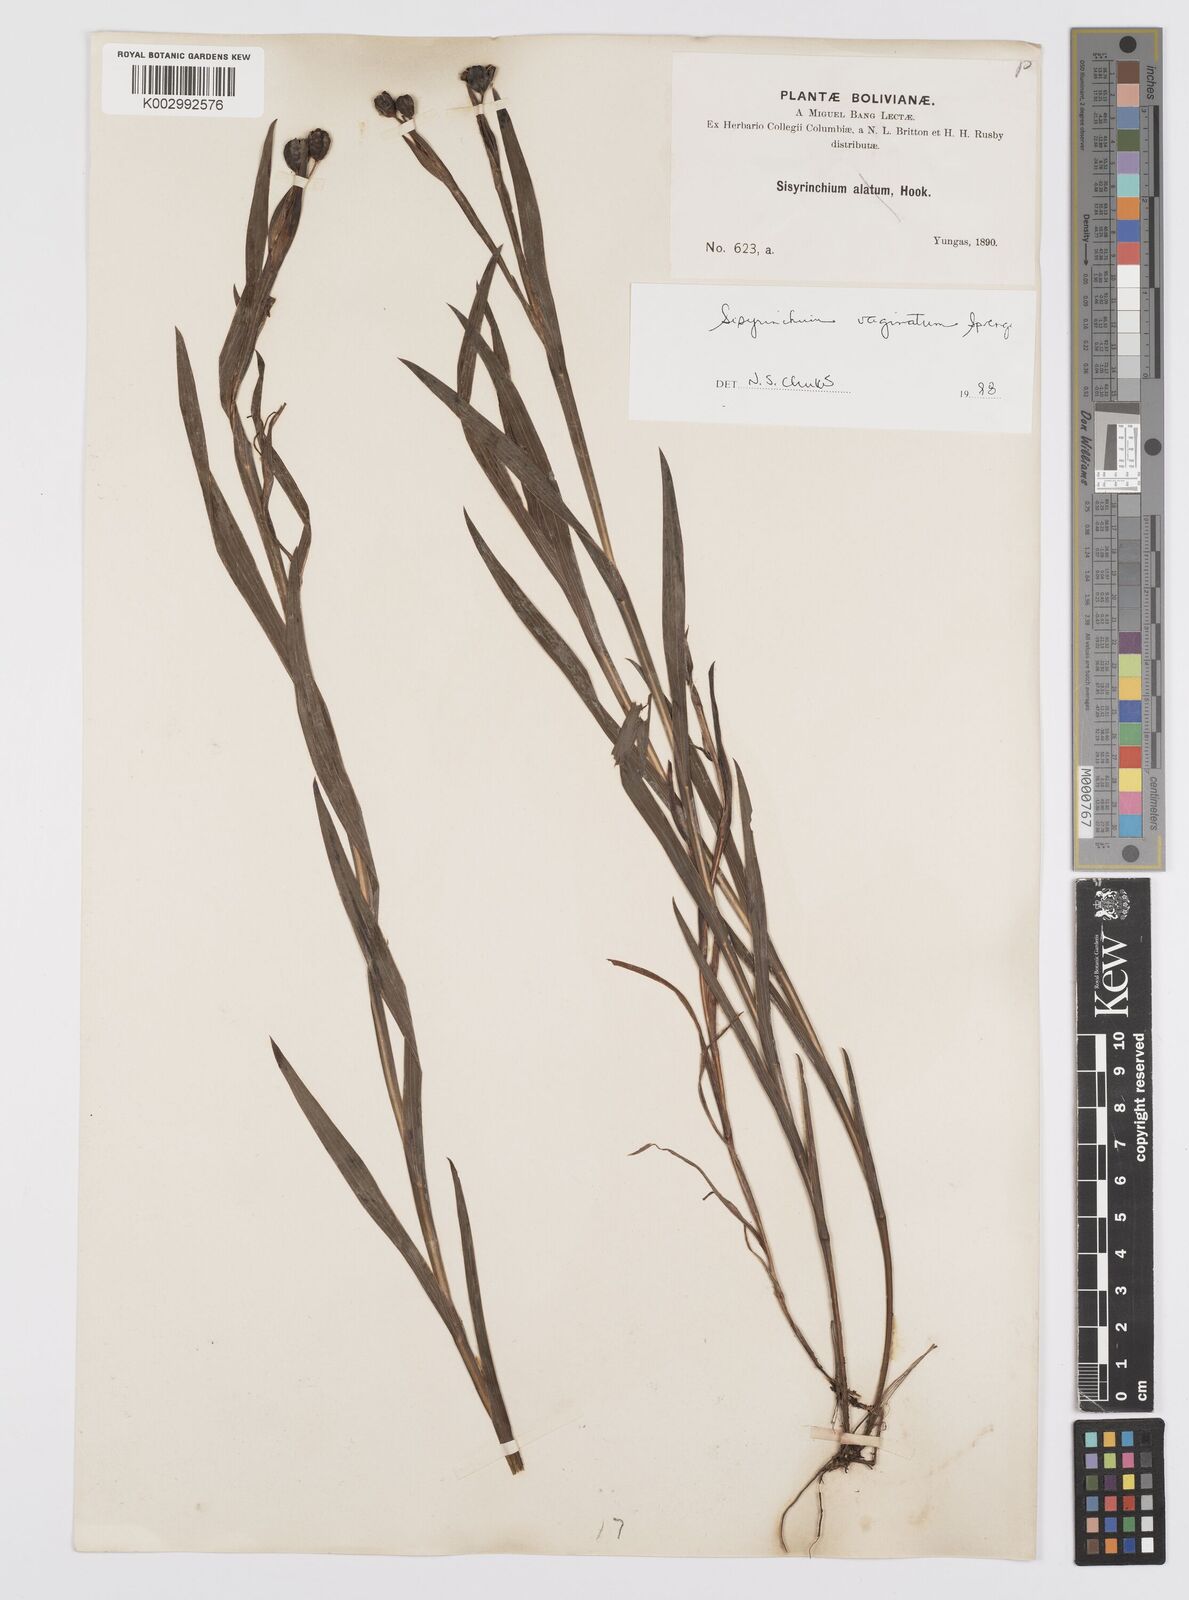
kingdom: Plantae
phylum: Tracheophyta
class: Liliopsida
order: Asparagales
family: Iridaceae
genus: Sisyrinchium
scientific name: Sisyrinchium vaginatum
